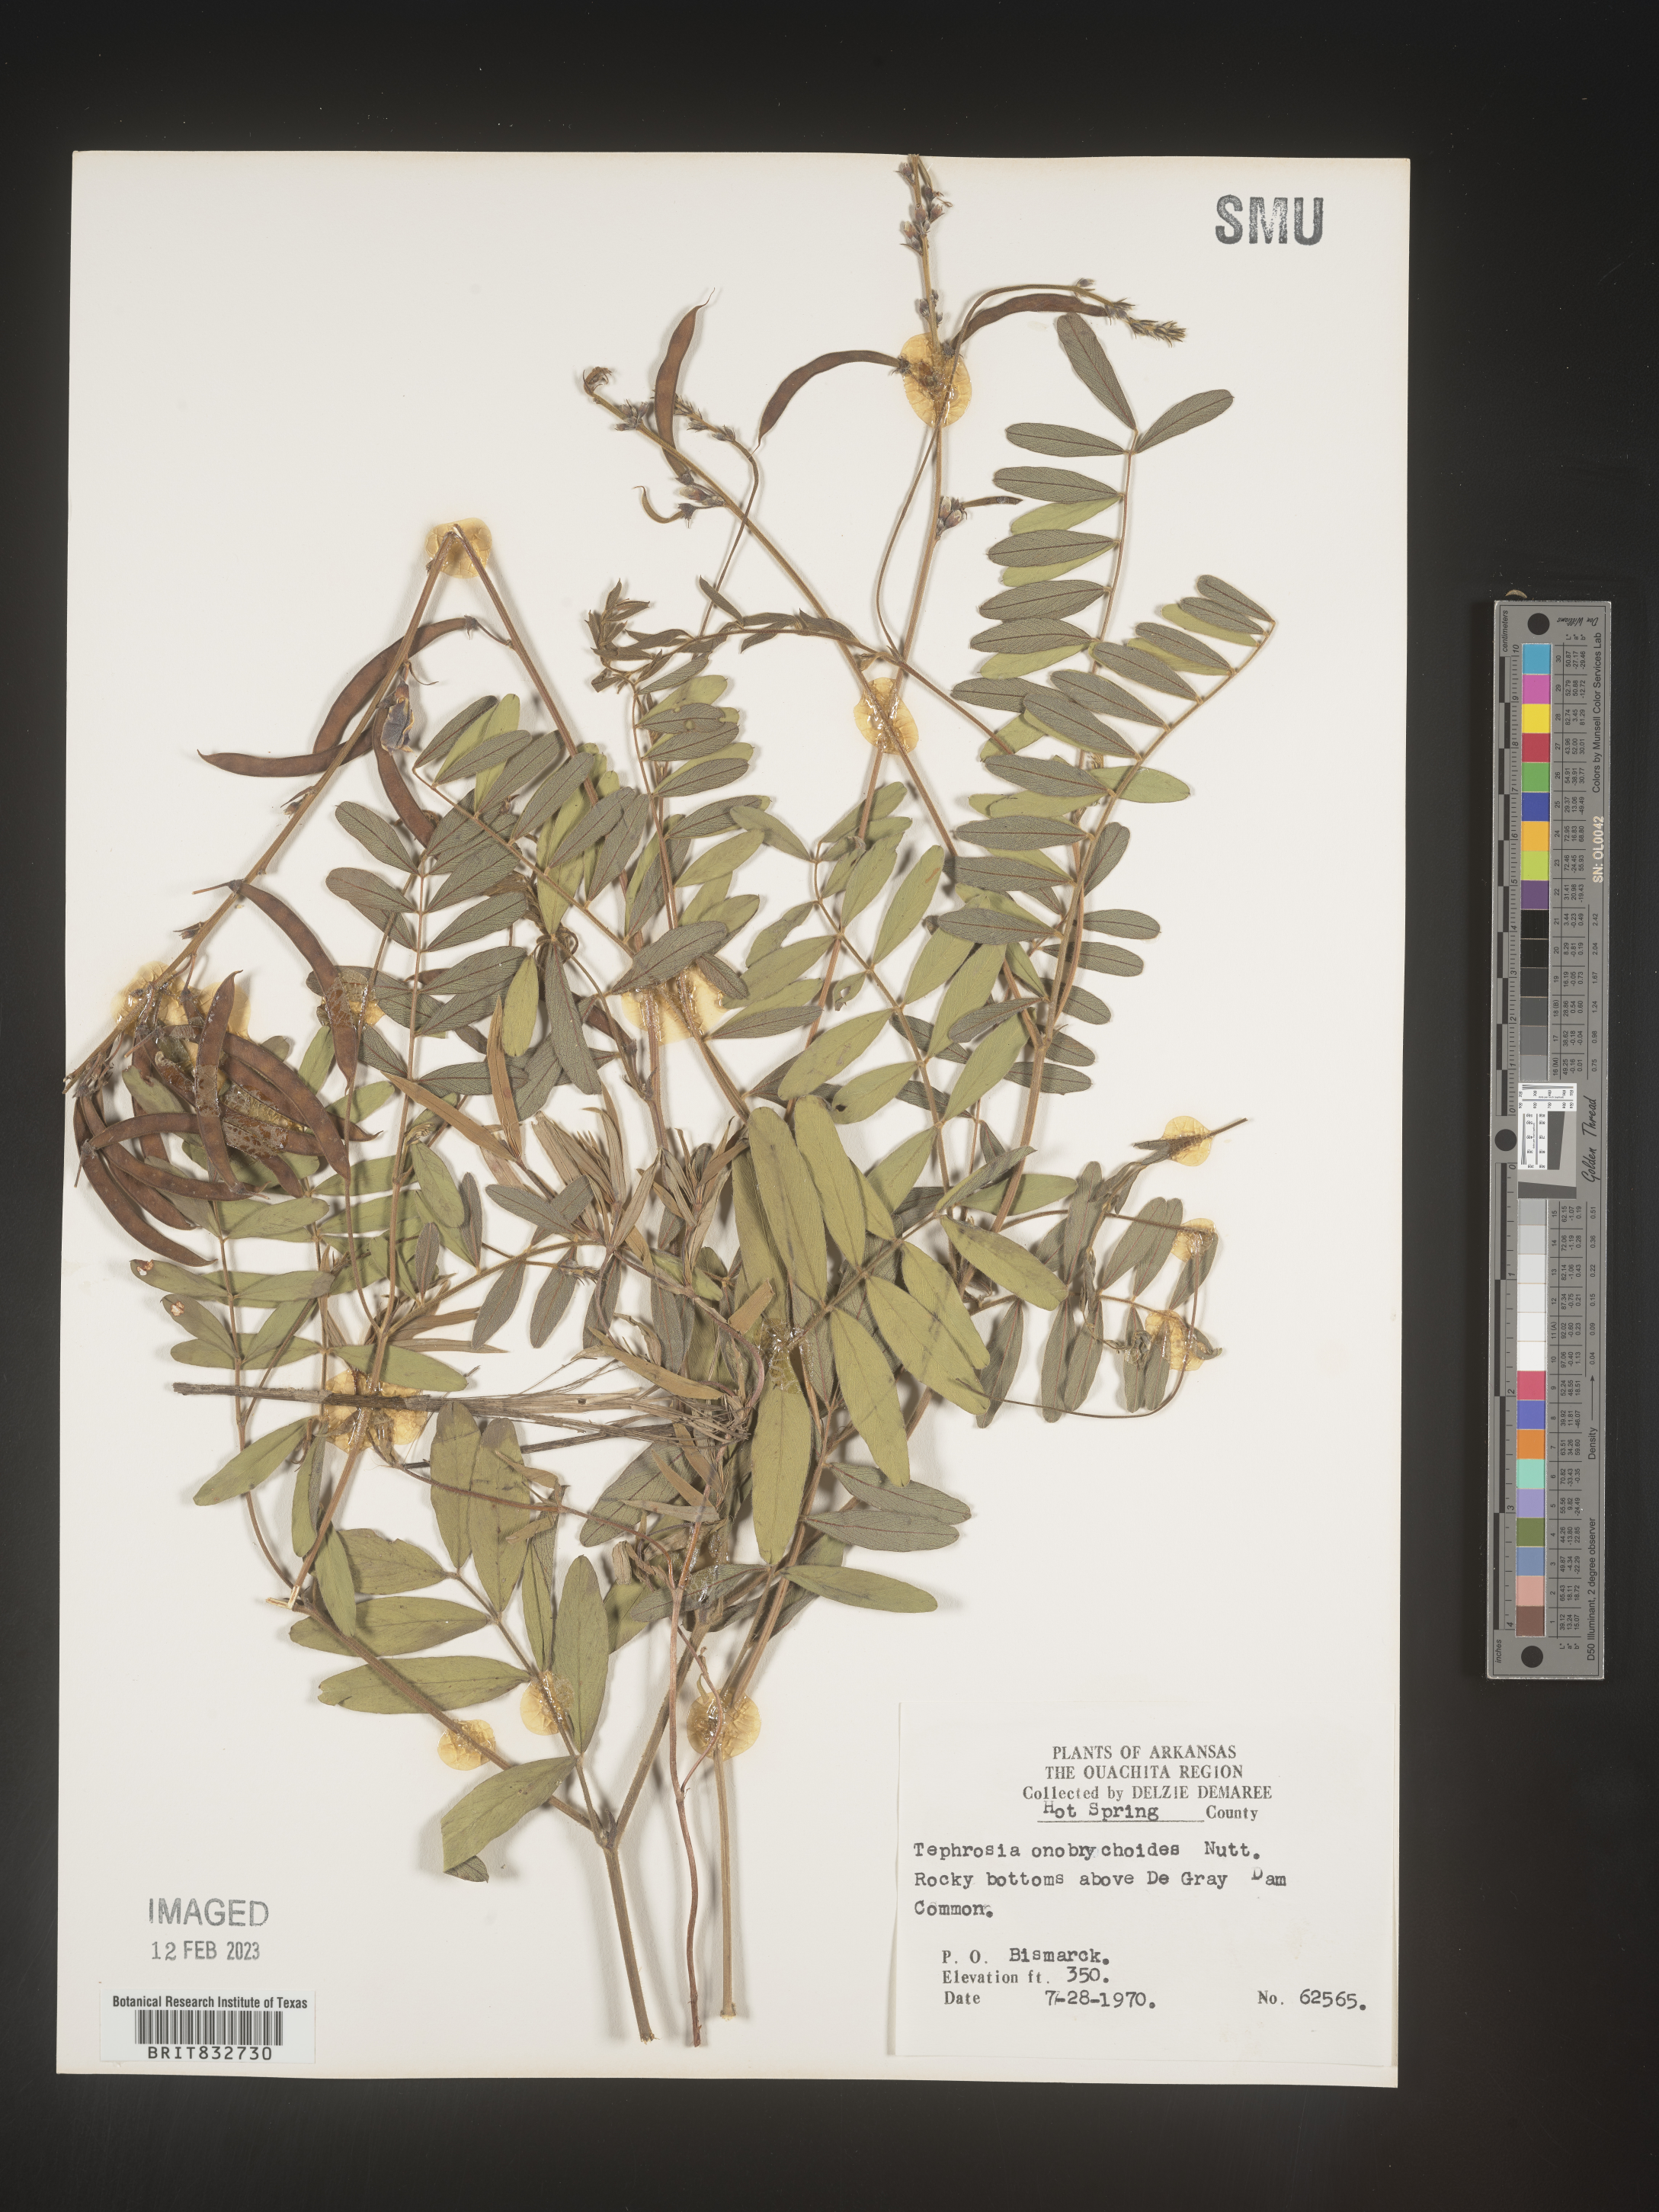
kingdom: Plantae
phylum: Tracheophyta
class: Magnoliopsida
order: Fabales
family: Fabaceae
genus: Tephrosia
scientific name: Tephrosia onobrychoides
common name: Multi-bloom hoary-pea
